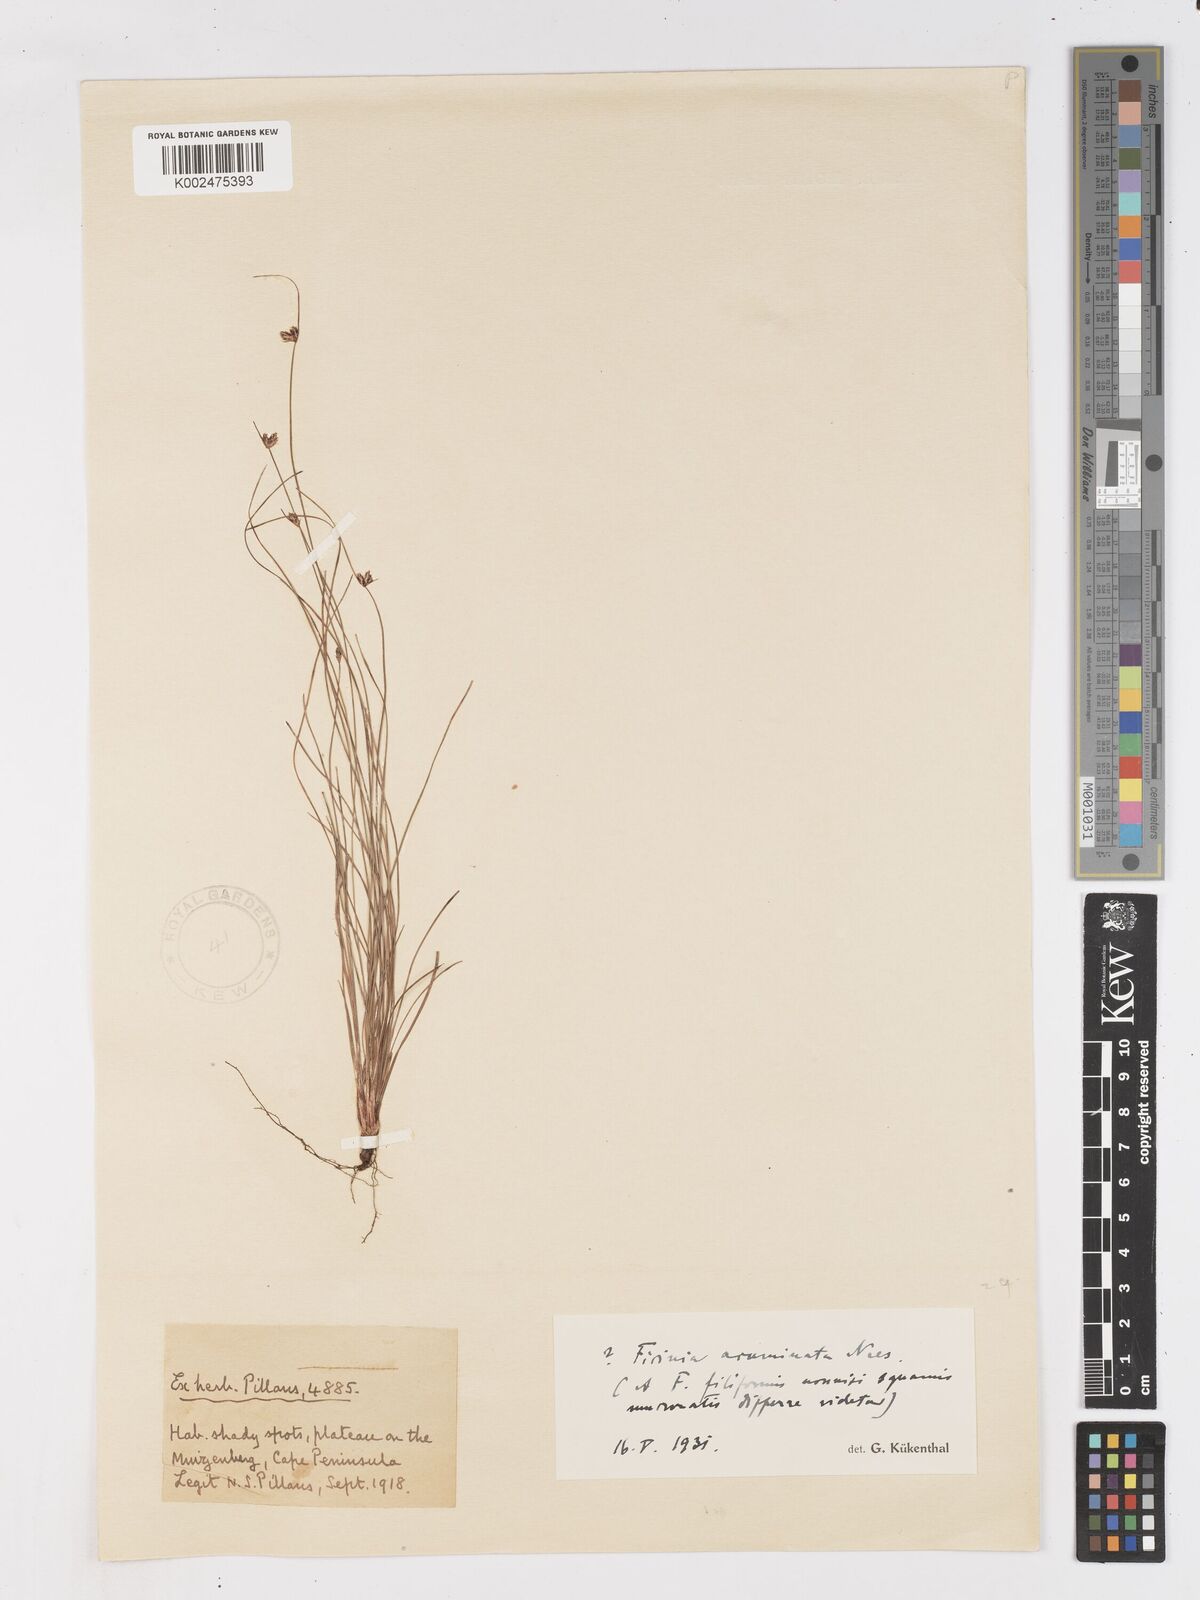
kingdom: Plantae
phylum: Tracheophyta
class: Liliopsida
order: Poales
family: Cyperaceae
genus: Ficinia
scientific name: Ficinia acuminata
